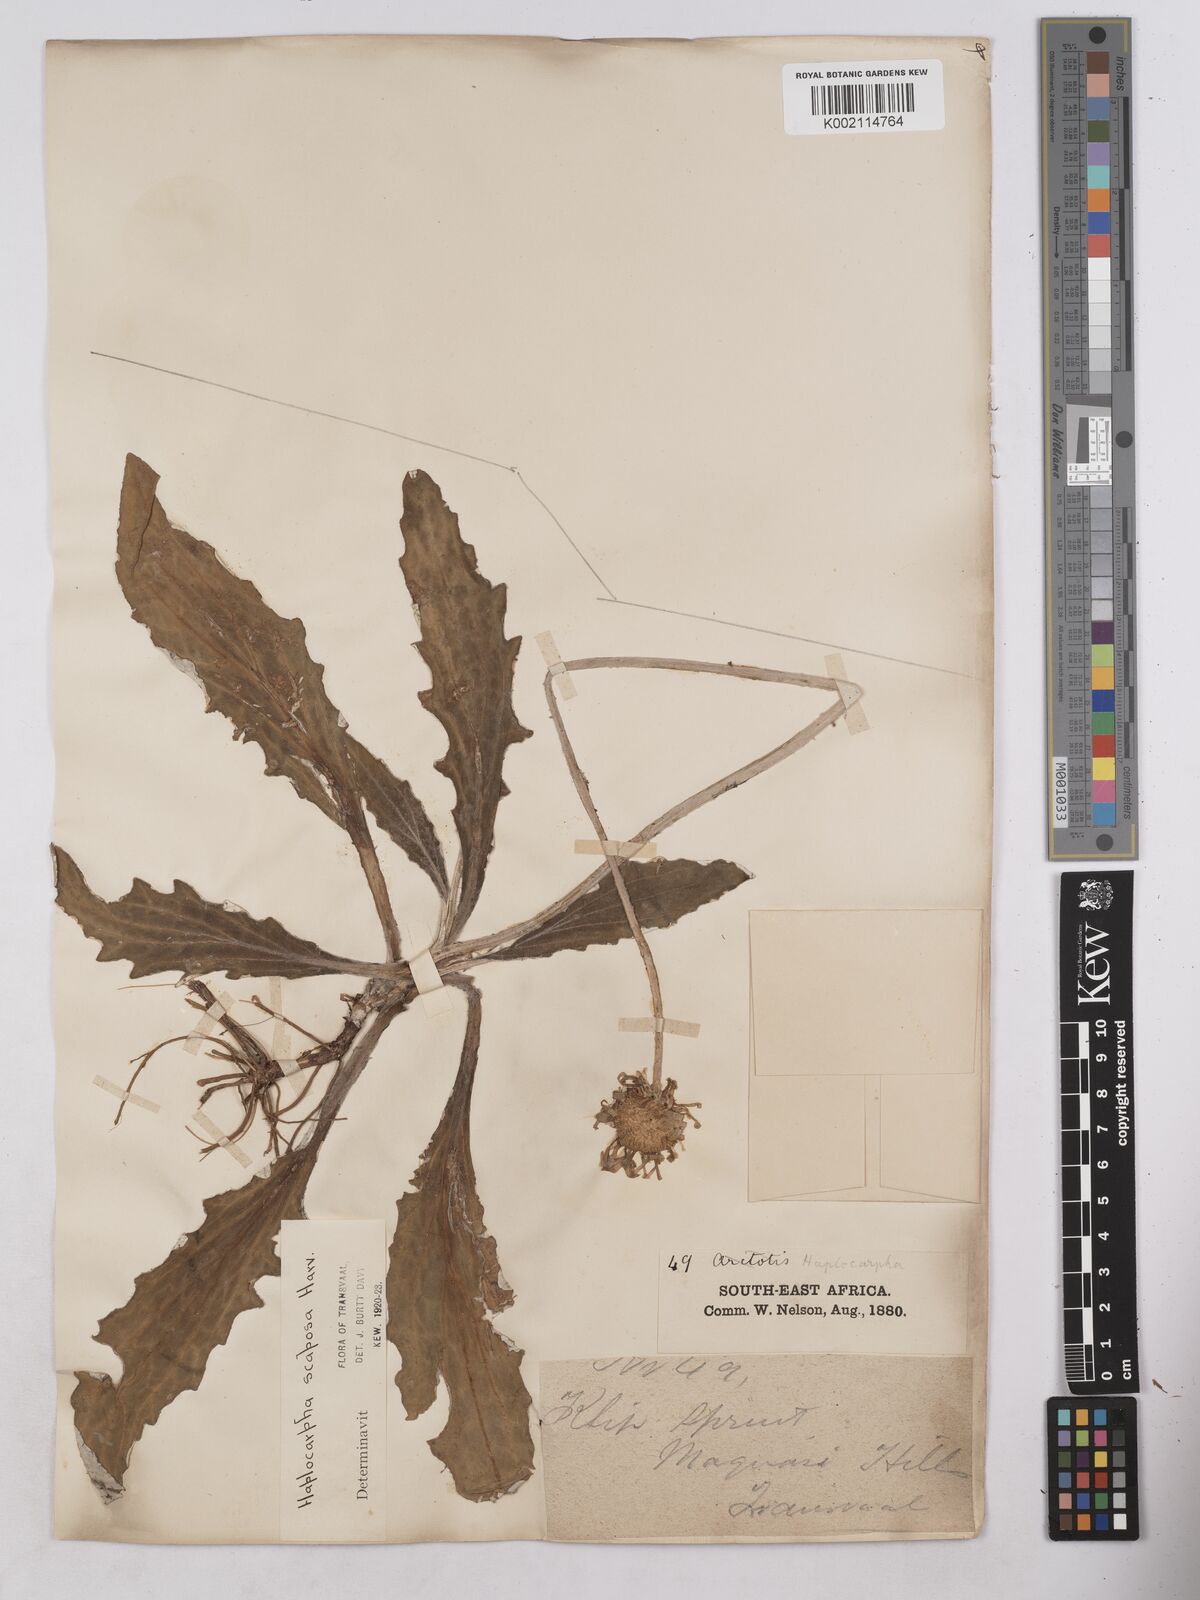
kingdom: Plantae
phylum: Tracheophyta
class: Magnoliopsida
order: Asterales
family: Asteraceae
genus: Haplocarpha
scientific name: Haplocarpha scaposa
